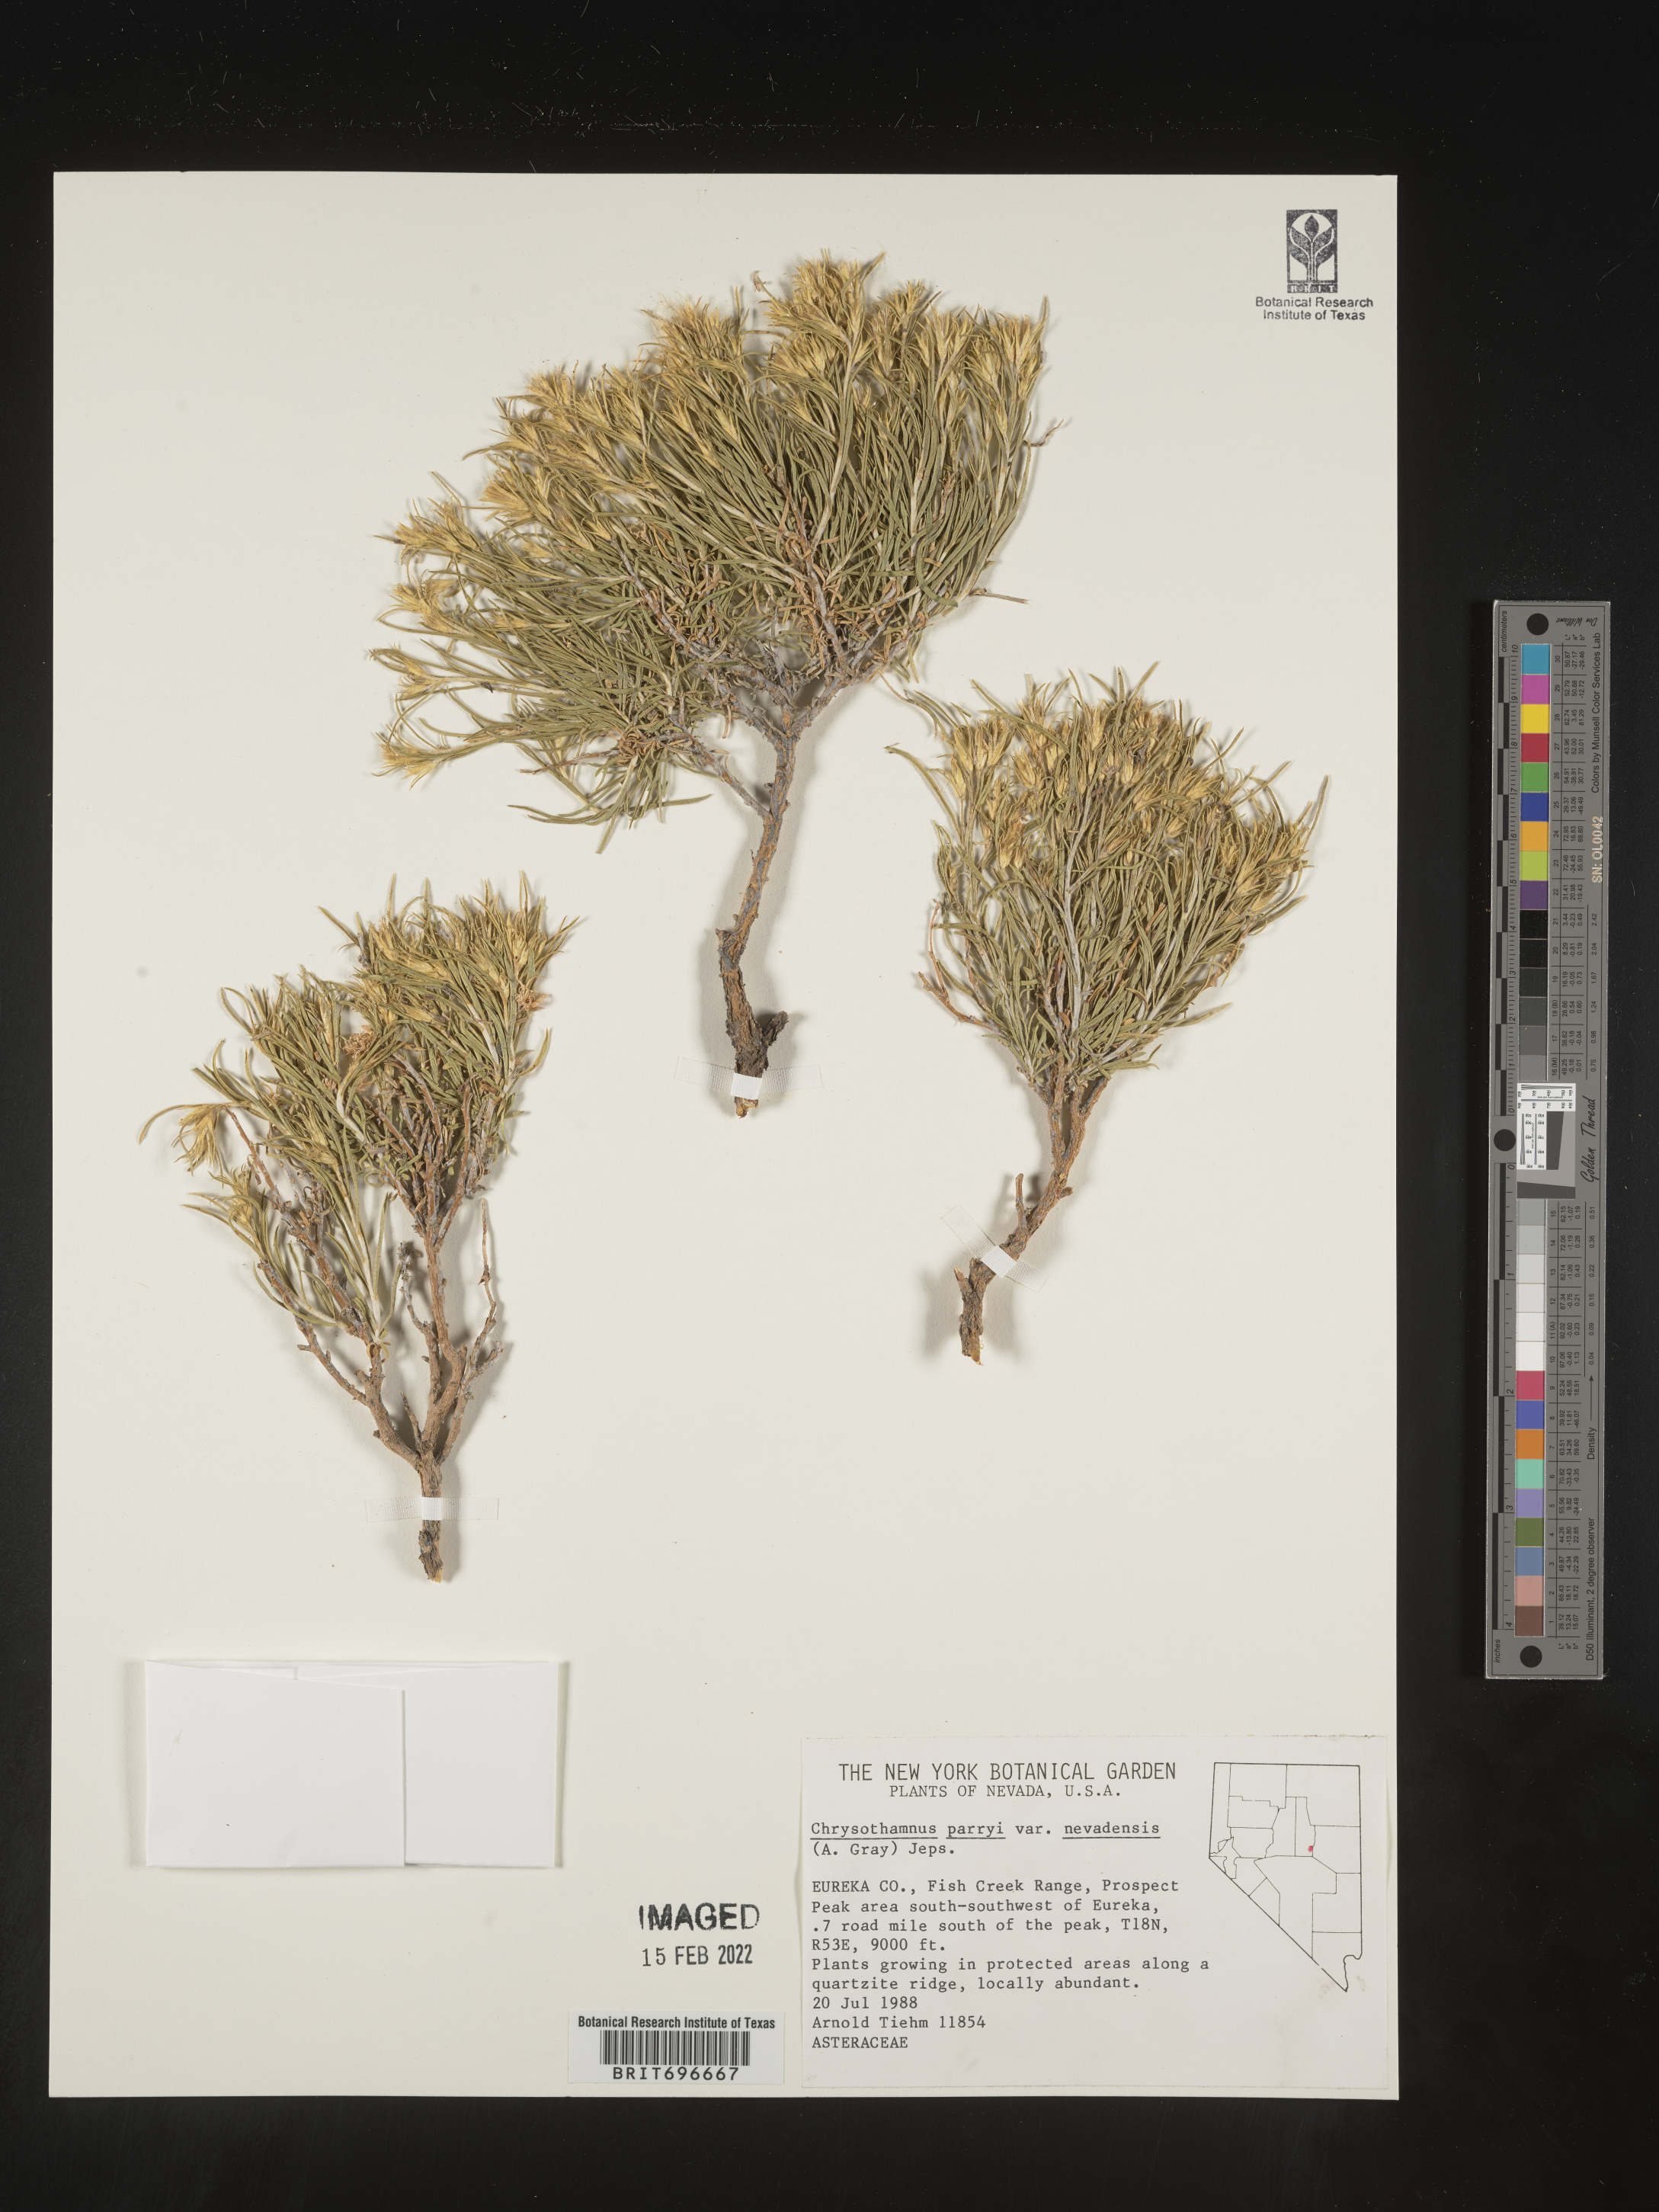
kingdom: Plantae
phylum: Tracheophyta
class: Magnoliopsida
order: Asterales
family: Asteraceae
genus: Ericameria
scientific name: Ericameria parryi
